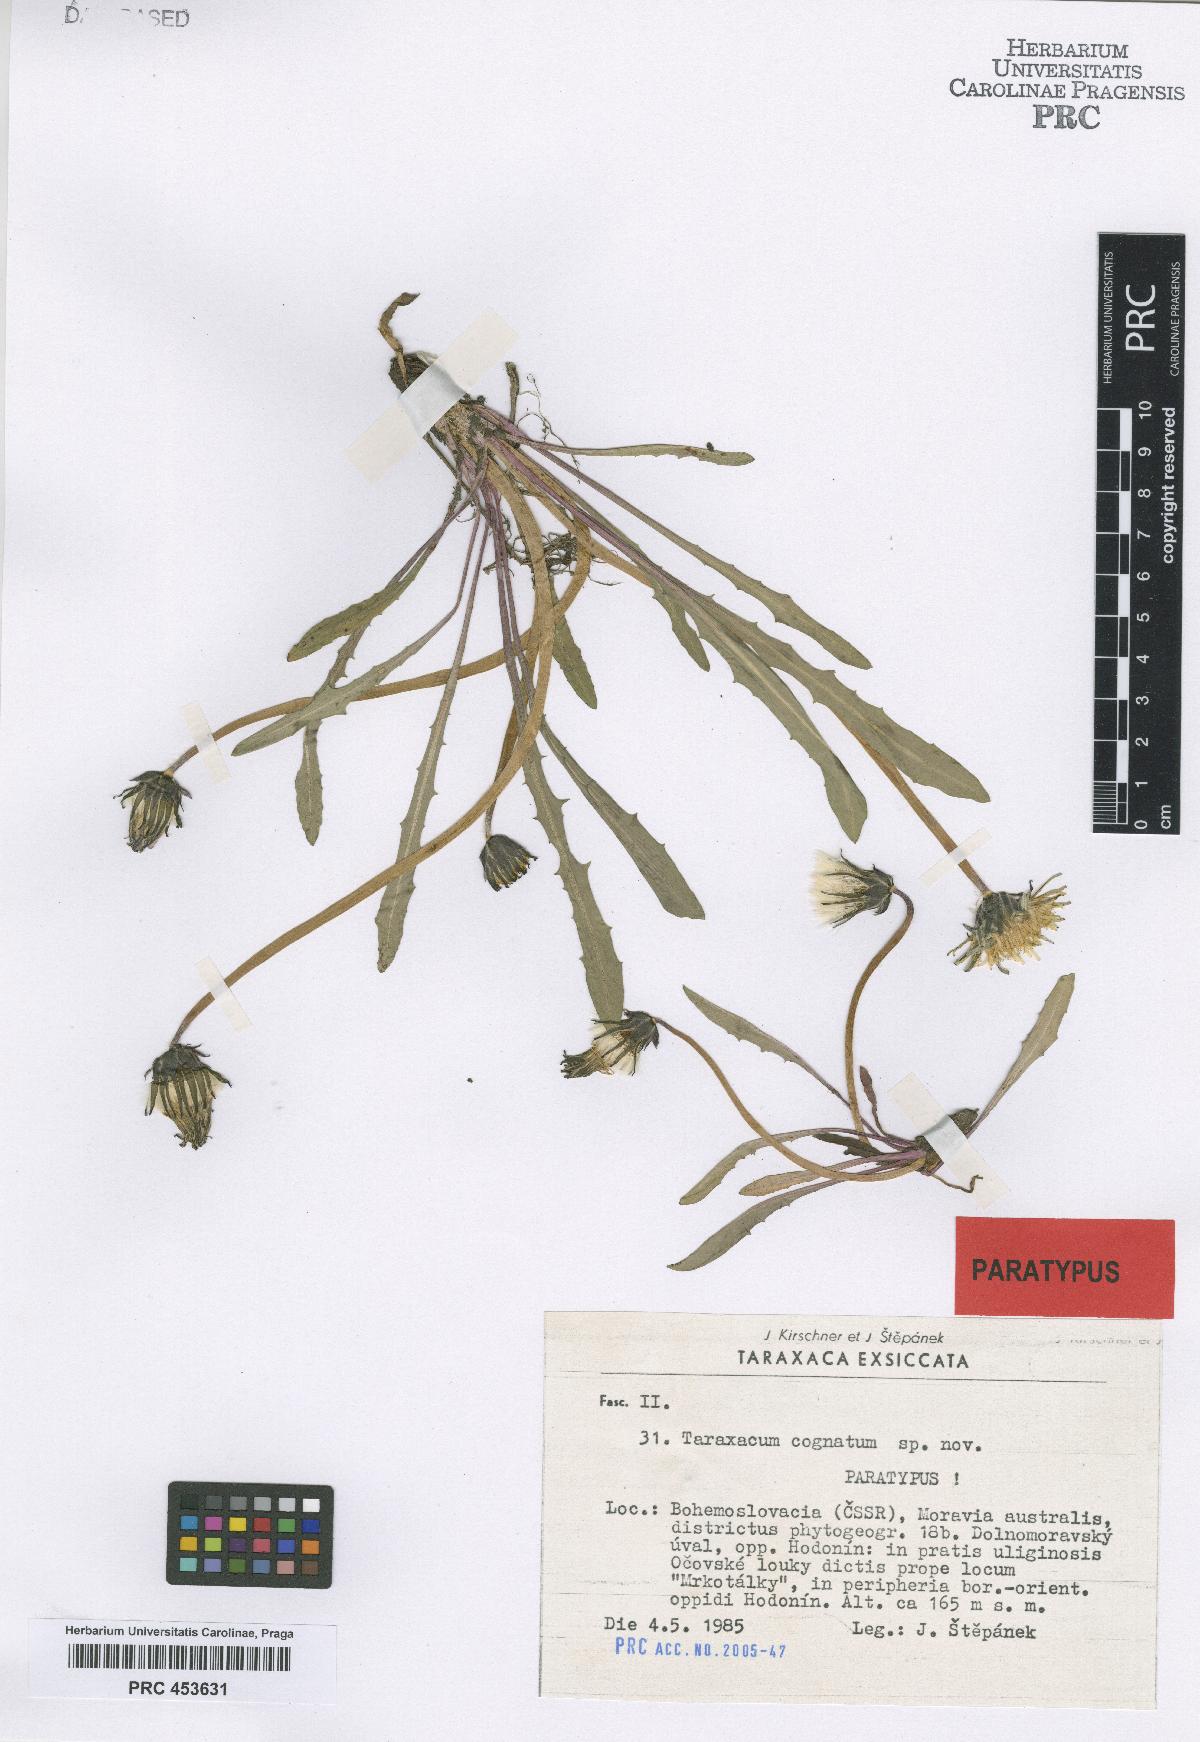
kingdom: Plantae
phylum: Tracheophyta
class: Magnoliopsida
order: Asterales
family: Asteraceae
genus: Taraxacum
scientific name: Taraxacum cognatum
